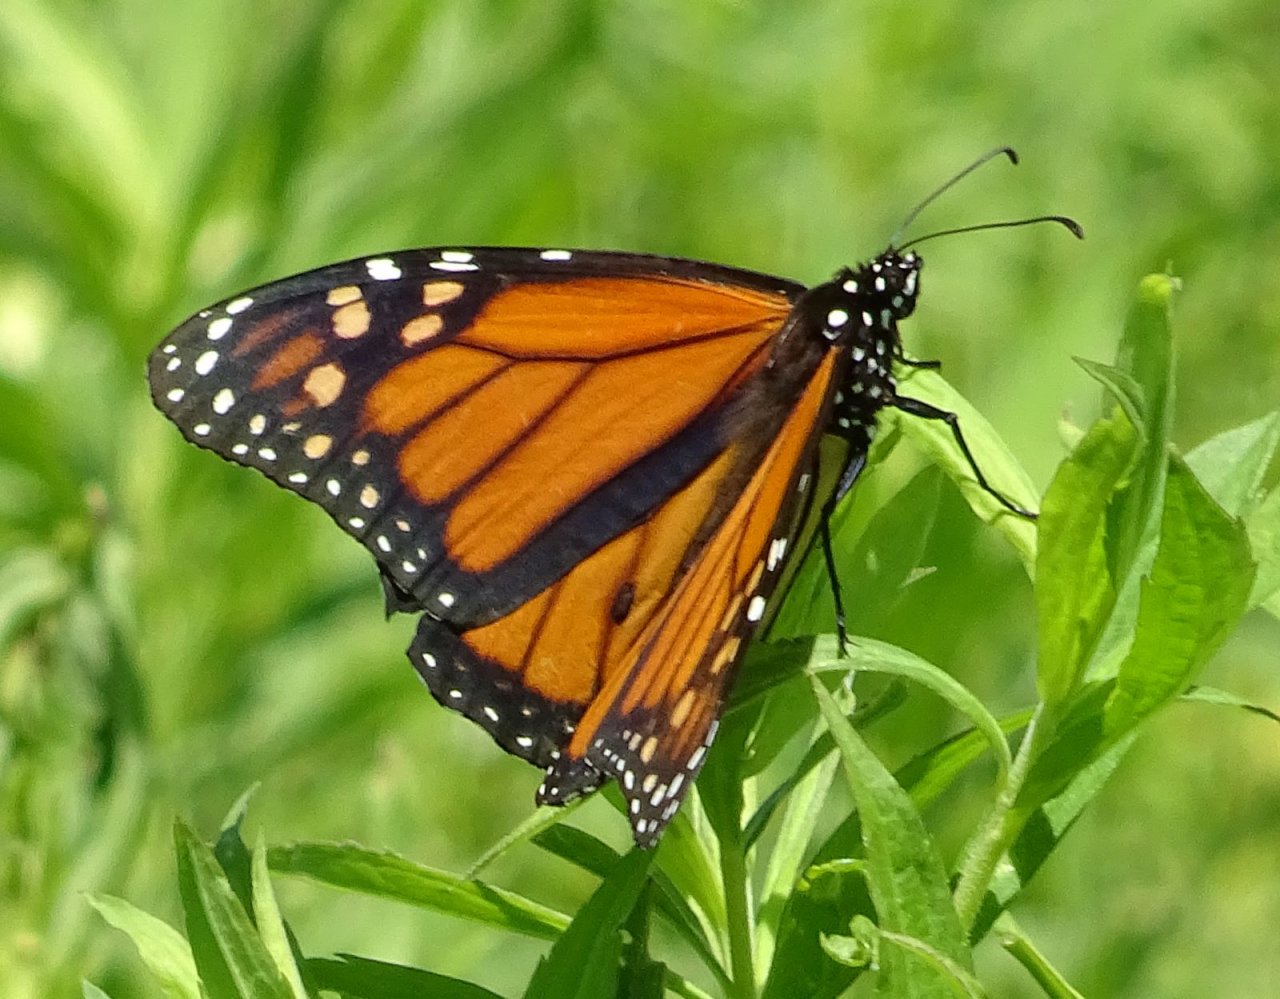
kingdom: Animalia
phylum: Arthropoda
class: Insecta
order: Lepidoptera
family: Nymphalidae
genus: Danaus
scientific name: Danaus plexippus
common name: Monarch
